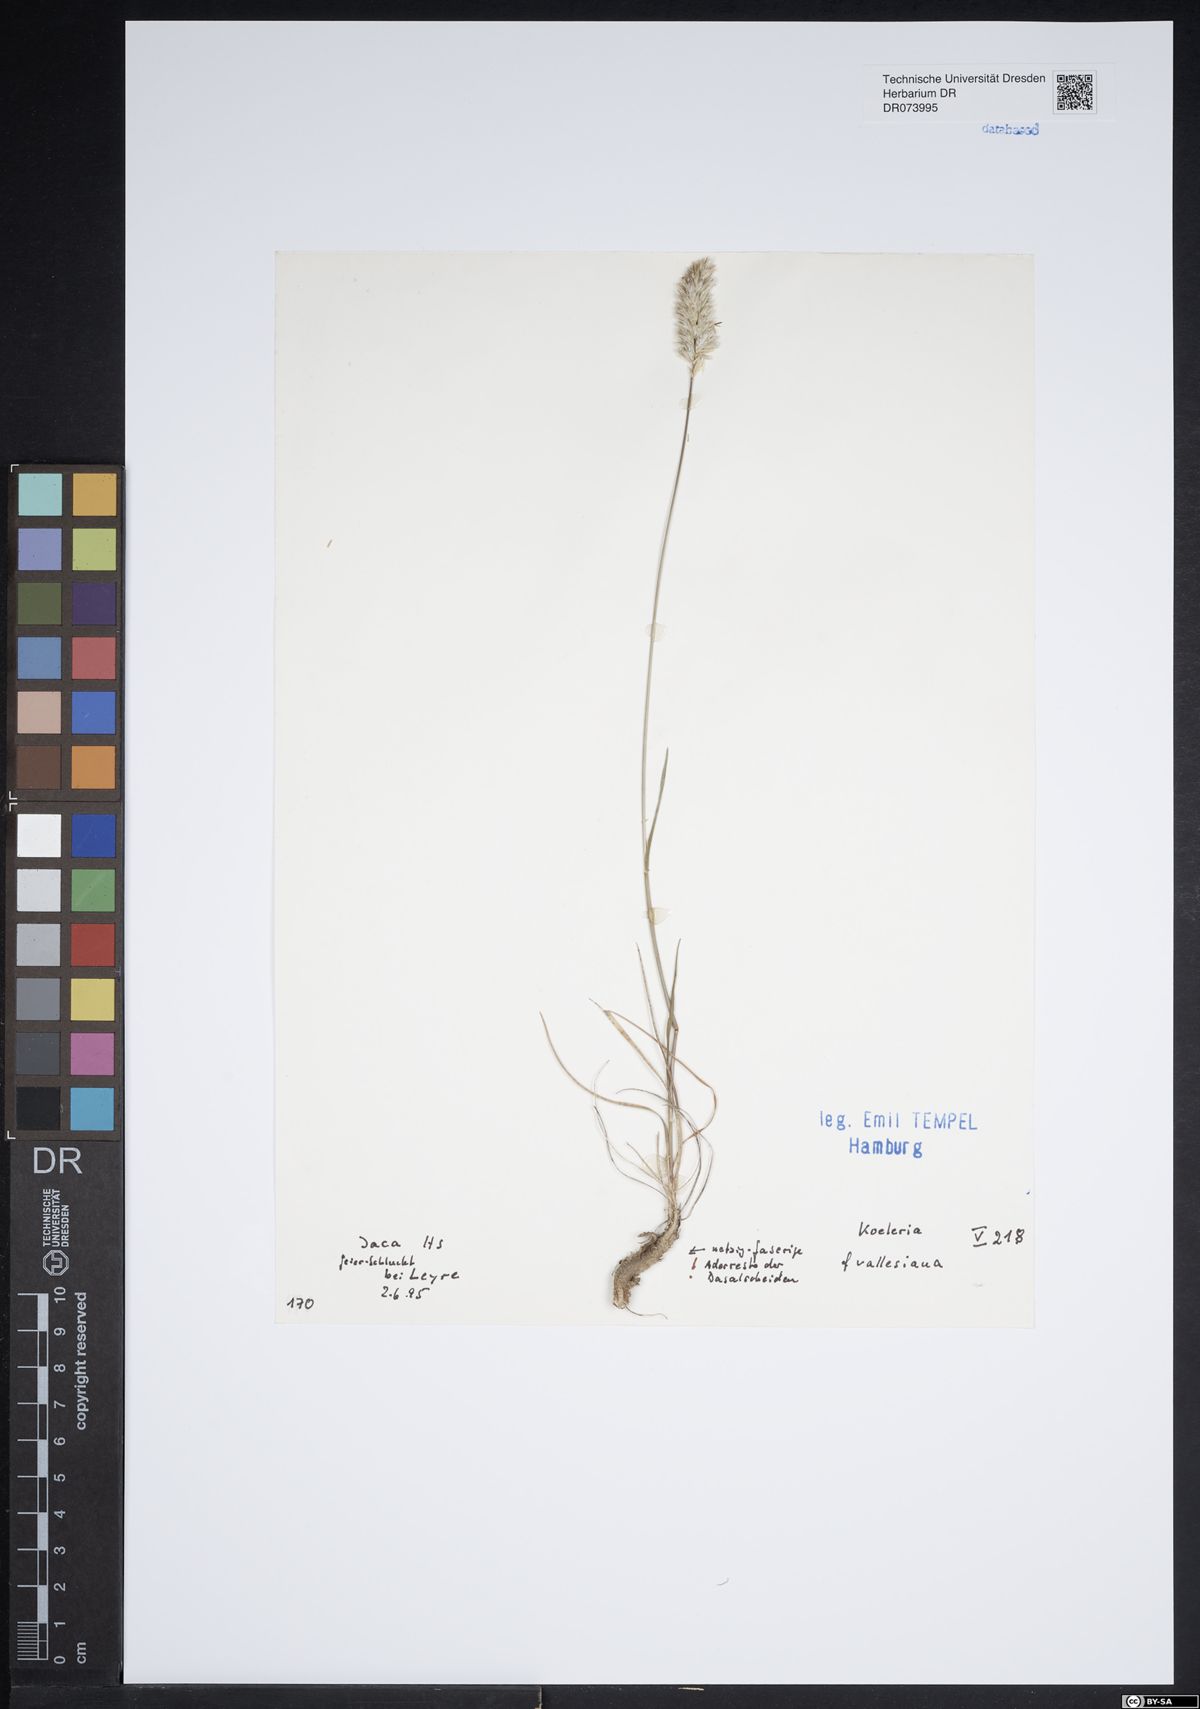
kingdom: Plantae
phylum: Tracheophyta
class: Liliopsida
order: Poales
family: Poaceae
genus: Koeleria
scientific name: Koeleria vallesiana
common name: Somerset hair-grass
